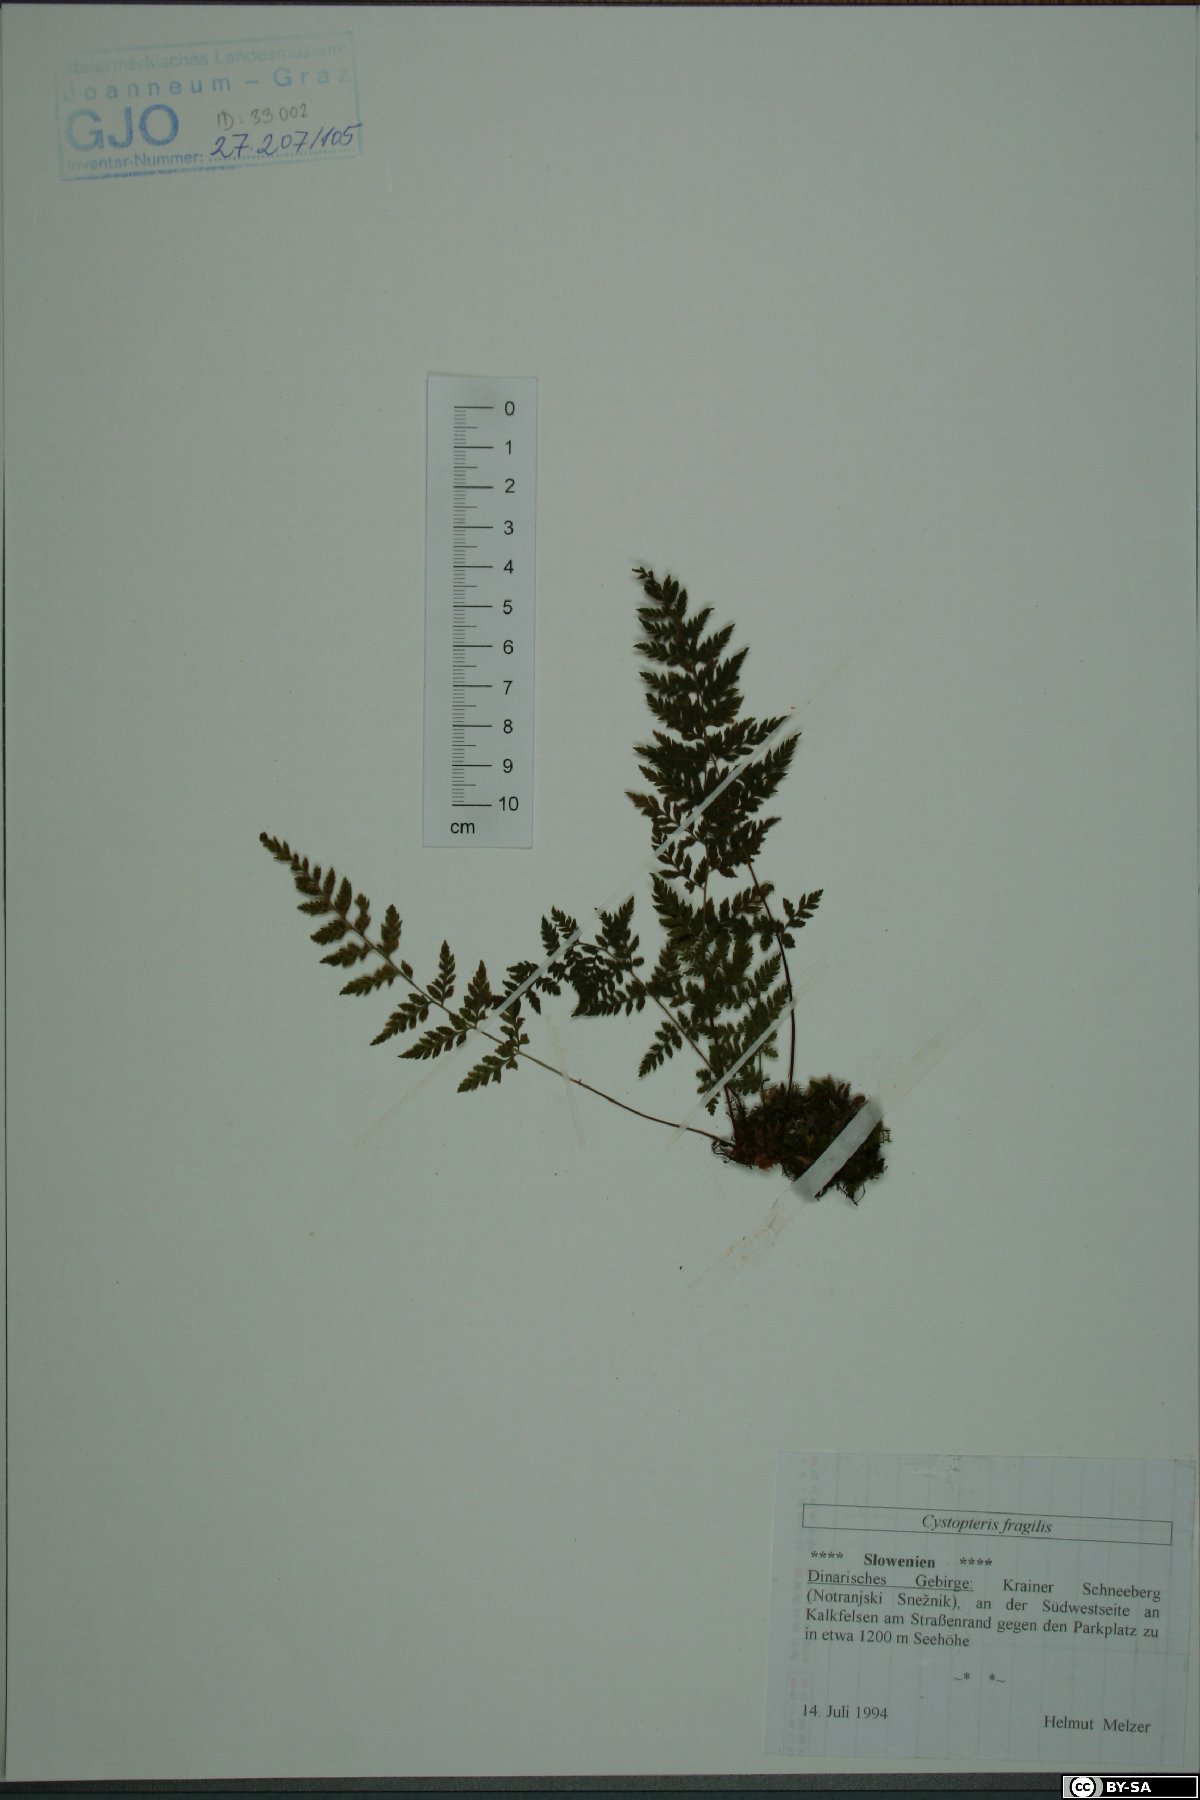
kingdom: Plantae
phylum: Tracheophyta
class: Polypodiopsida
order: Polypodiales
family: Cystopteridaceae
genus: Cystopteris
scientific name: Cystopteris fragilis
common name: Brittle bladder fern
